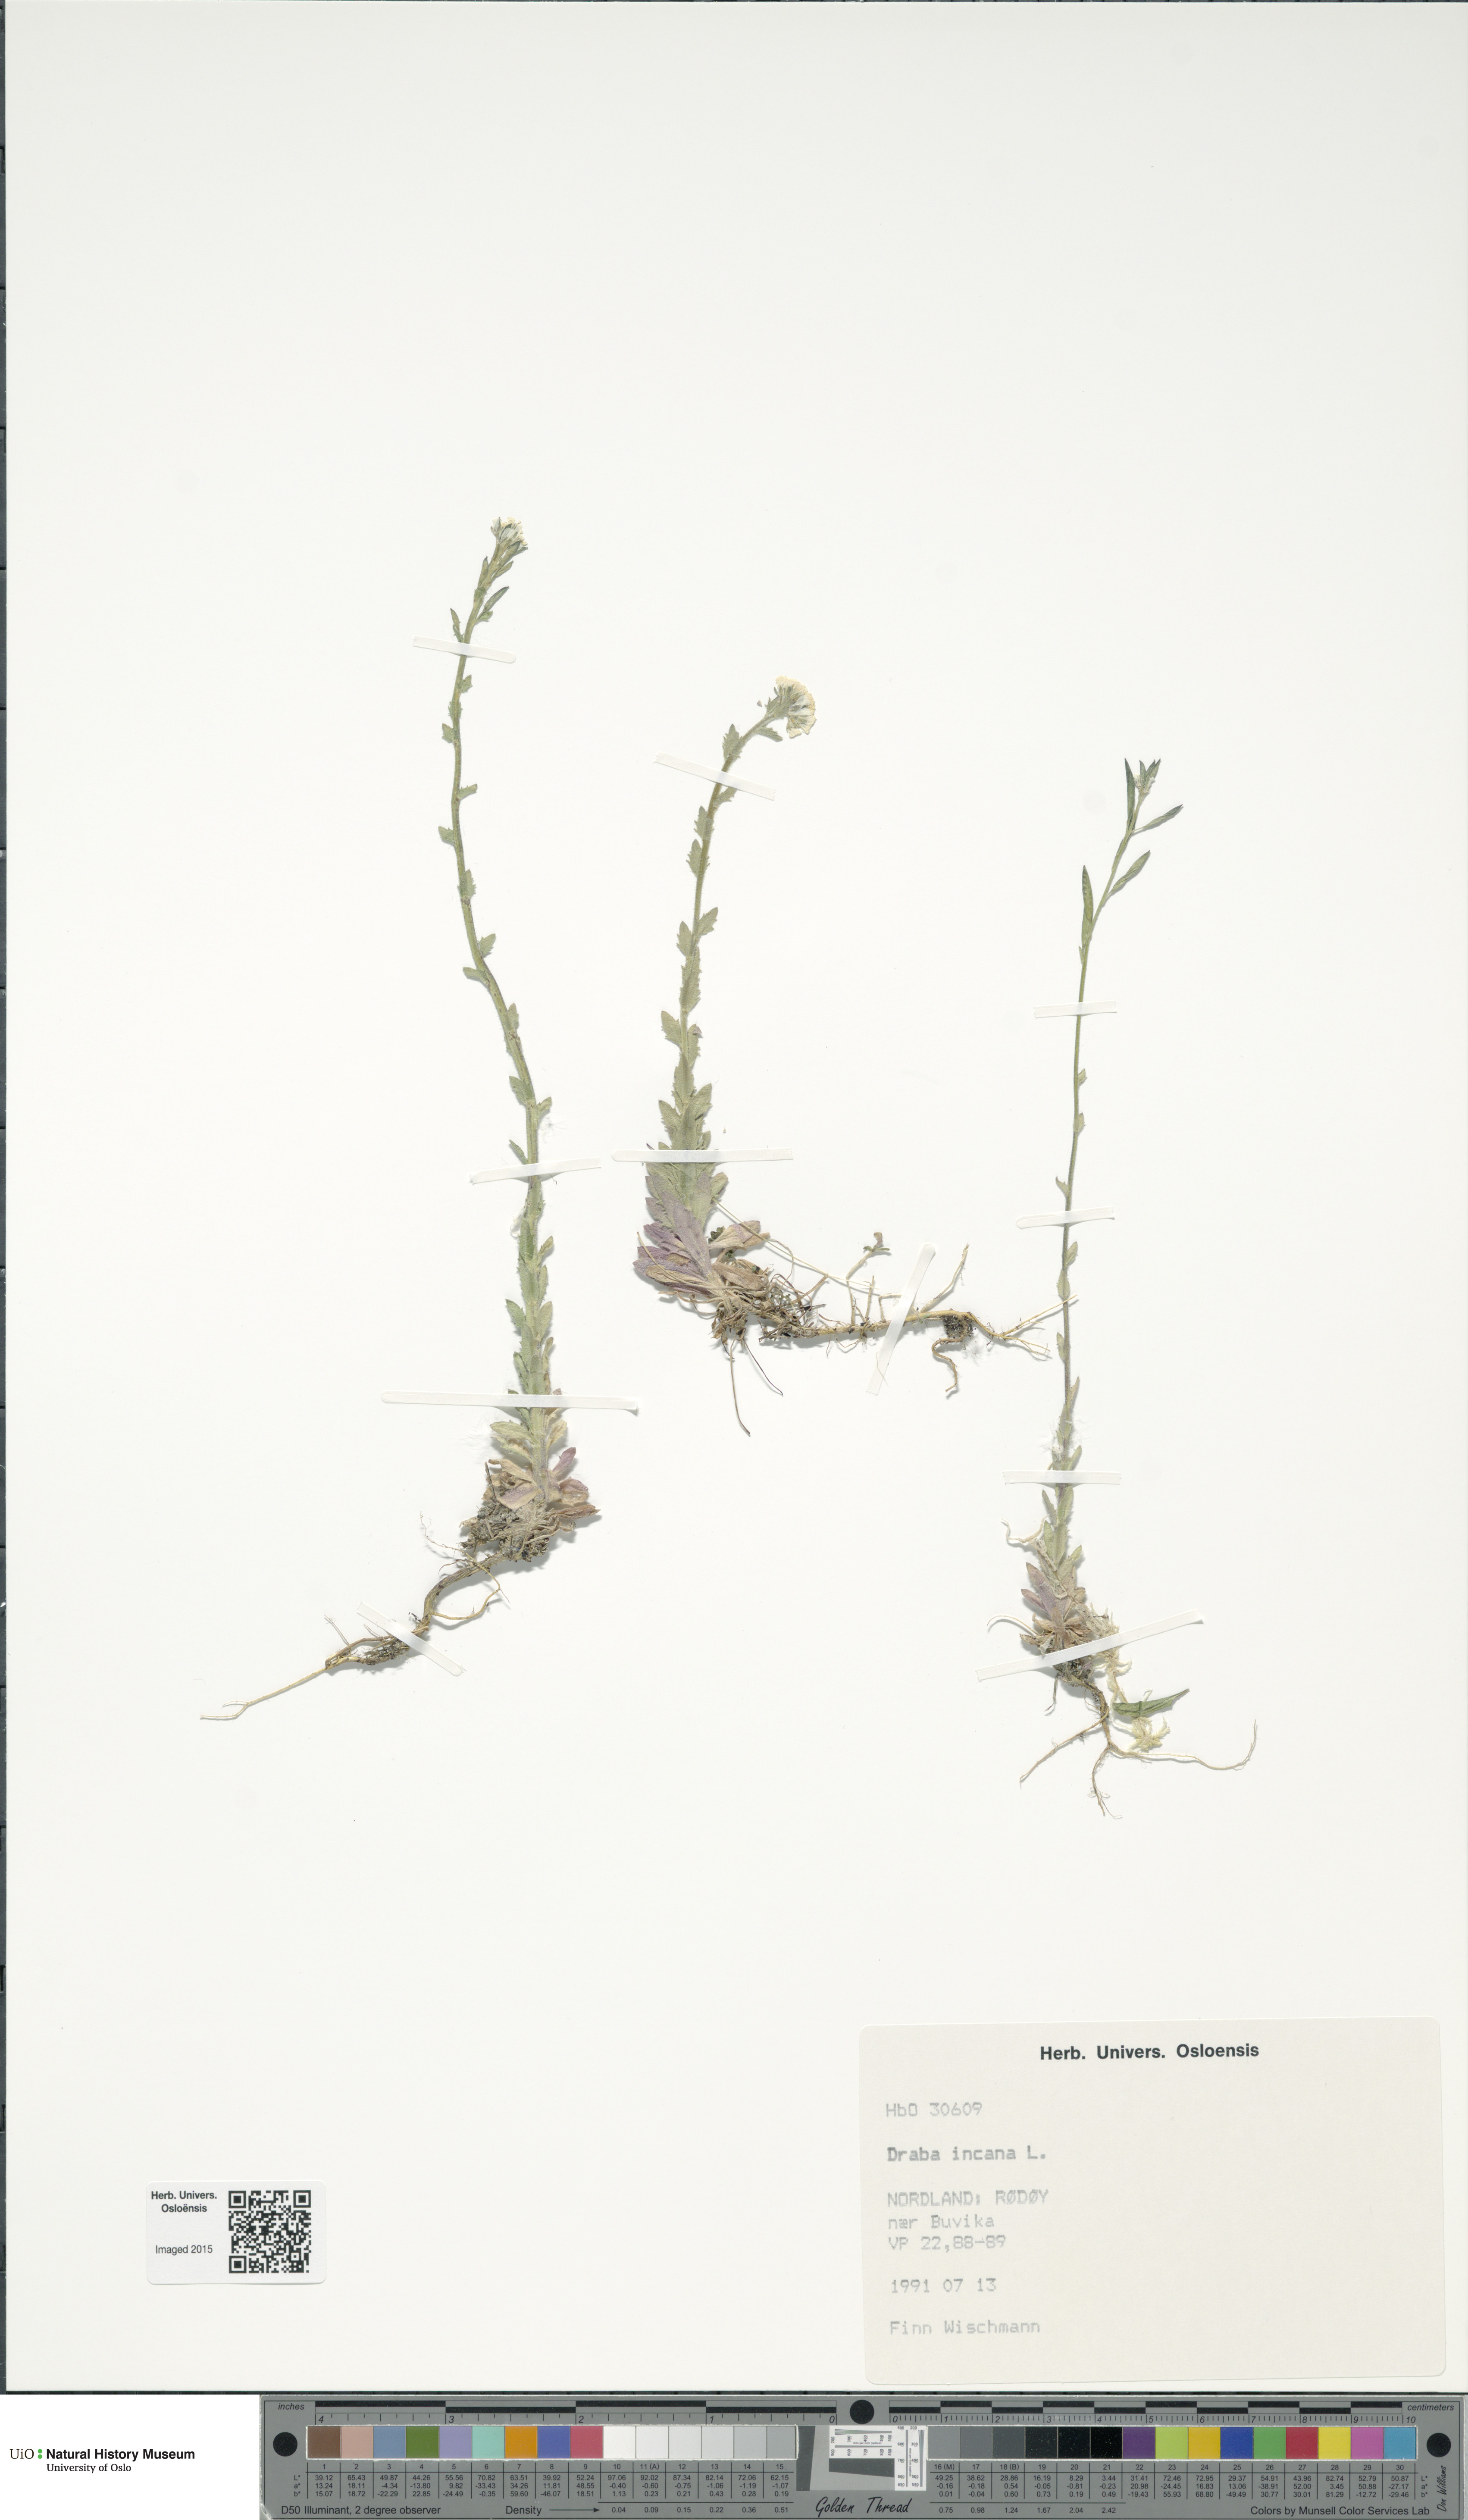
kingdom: Plantae
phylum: Tracheophyta
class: Magnoliopsida
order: Brassicales
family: Brassicaceae
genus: Draba
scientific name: Draba incana
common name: Hoary whitlow-grass
